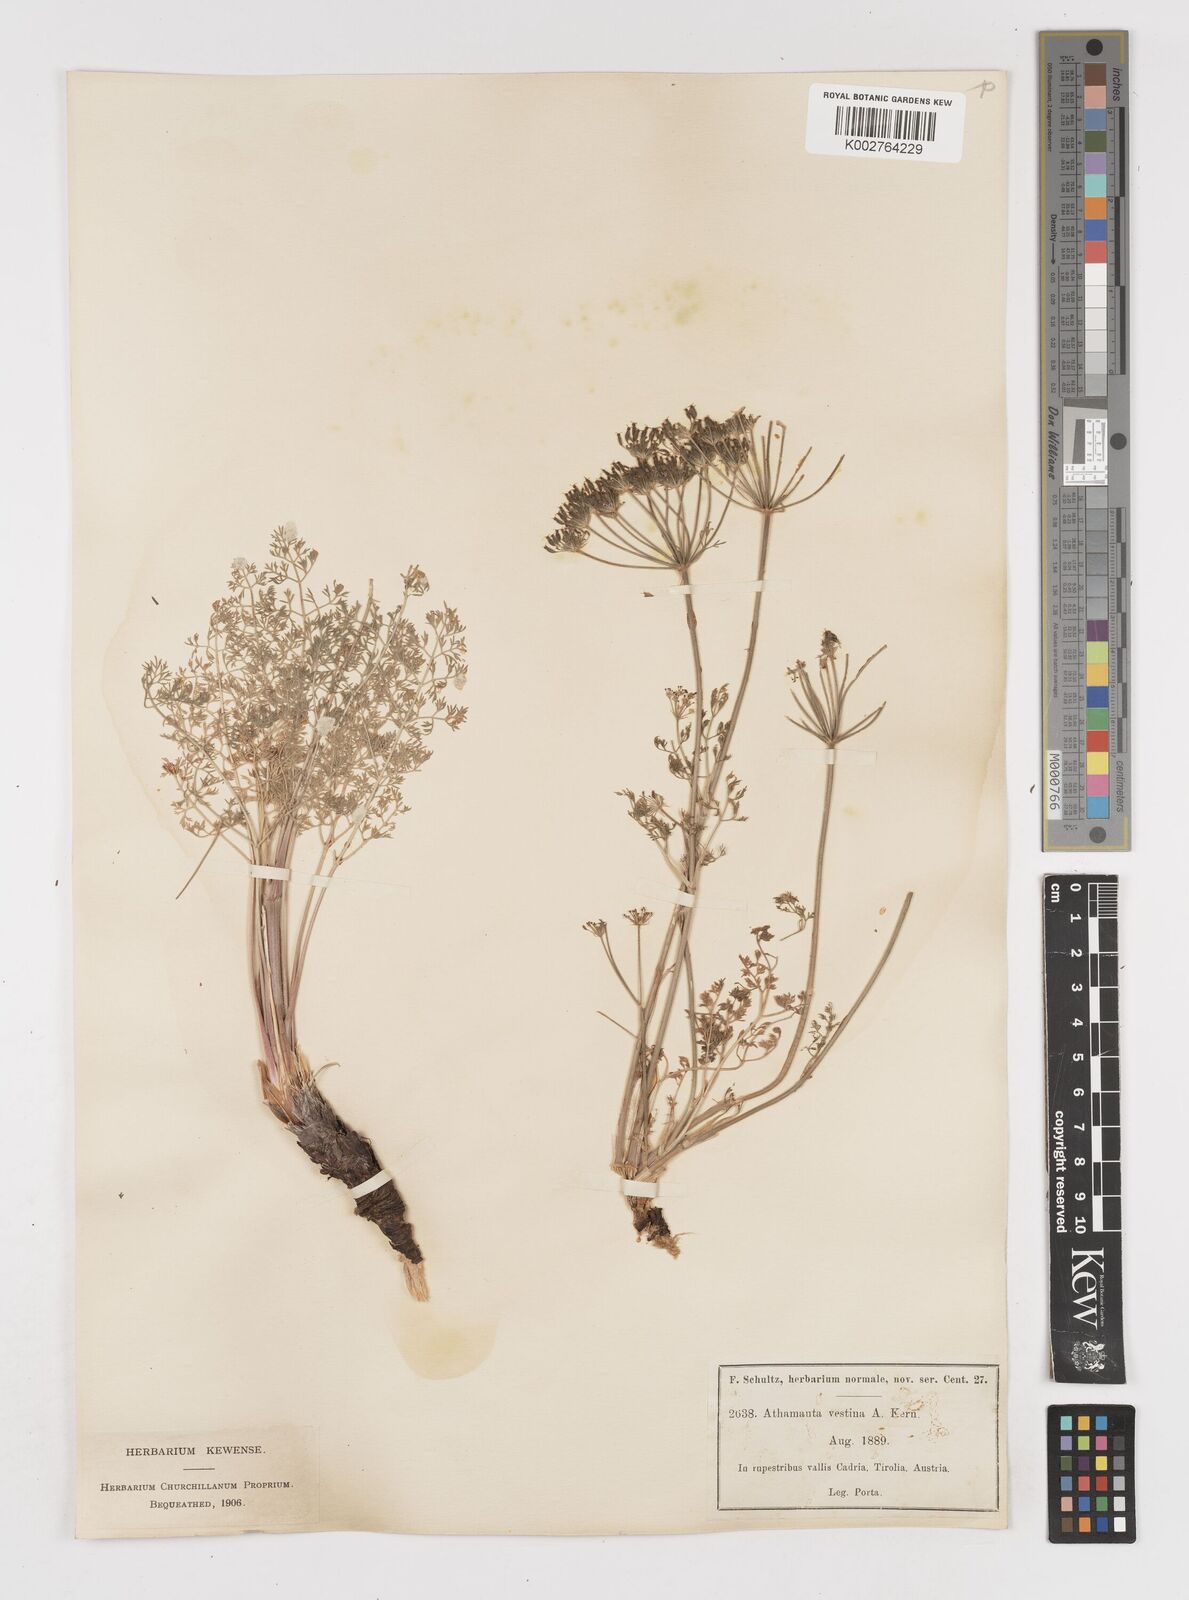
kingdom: Plantae
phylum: Tracheophyta
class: Magnoliopsida
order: Apiales
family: Apiaceae
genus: Athamanta
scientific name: Athamanta cretensis
